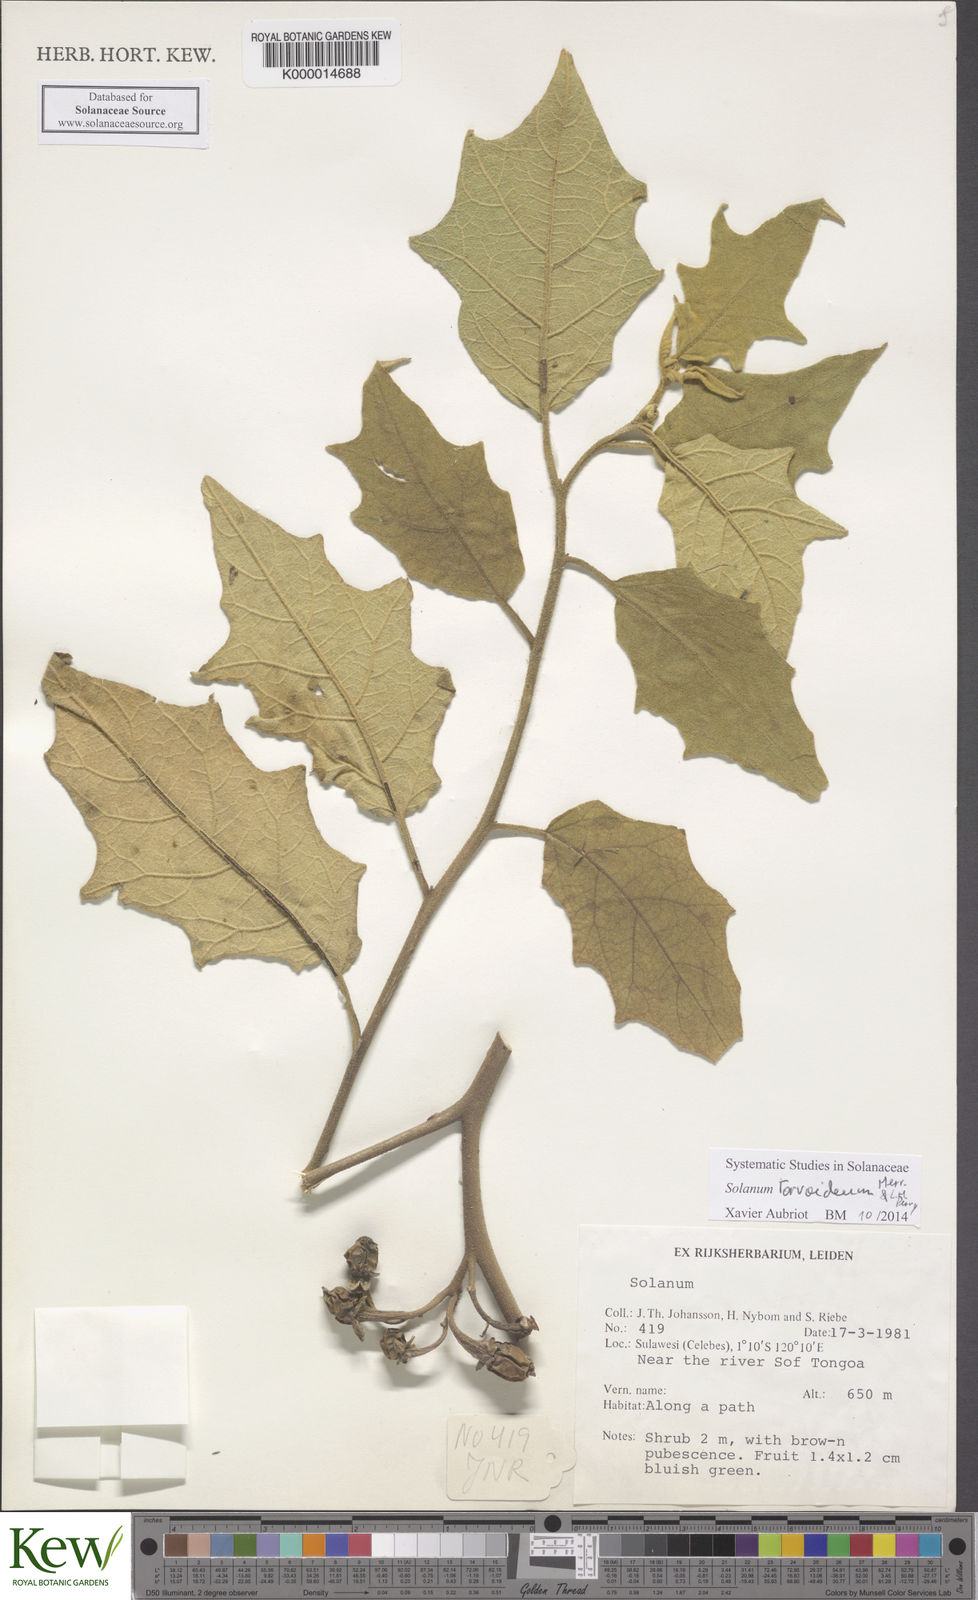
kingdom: Plantae
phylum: Tracheophyta
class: Magnoliopsida
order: Solanales
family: Solanaceae
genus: Solanum
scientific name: Solanum pubescens
